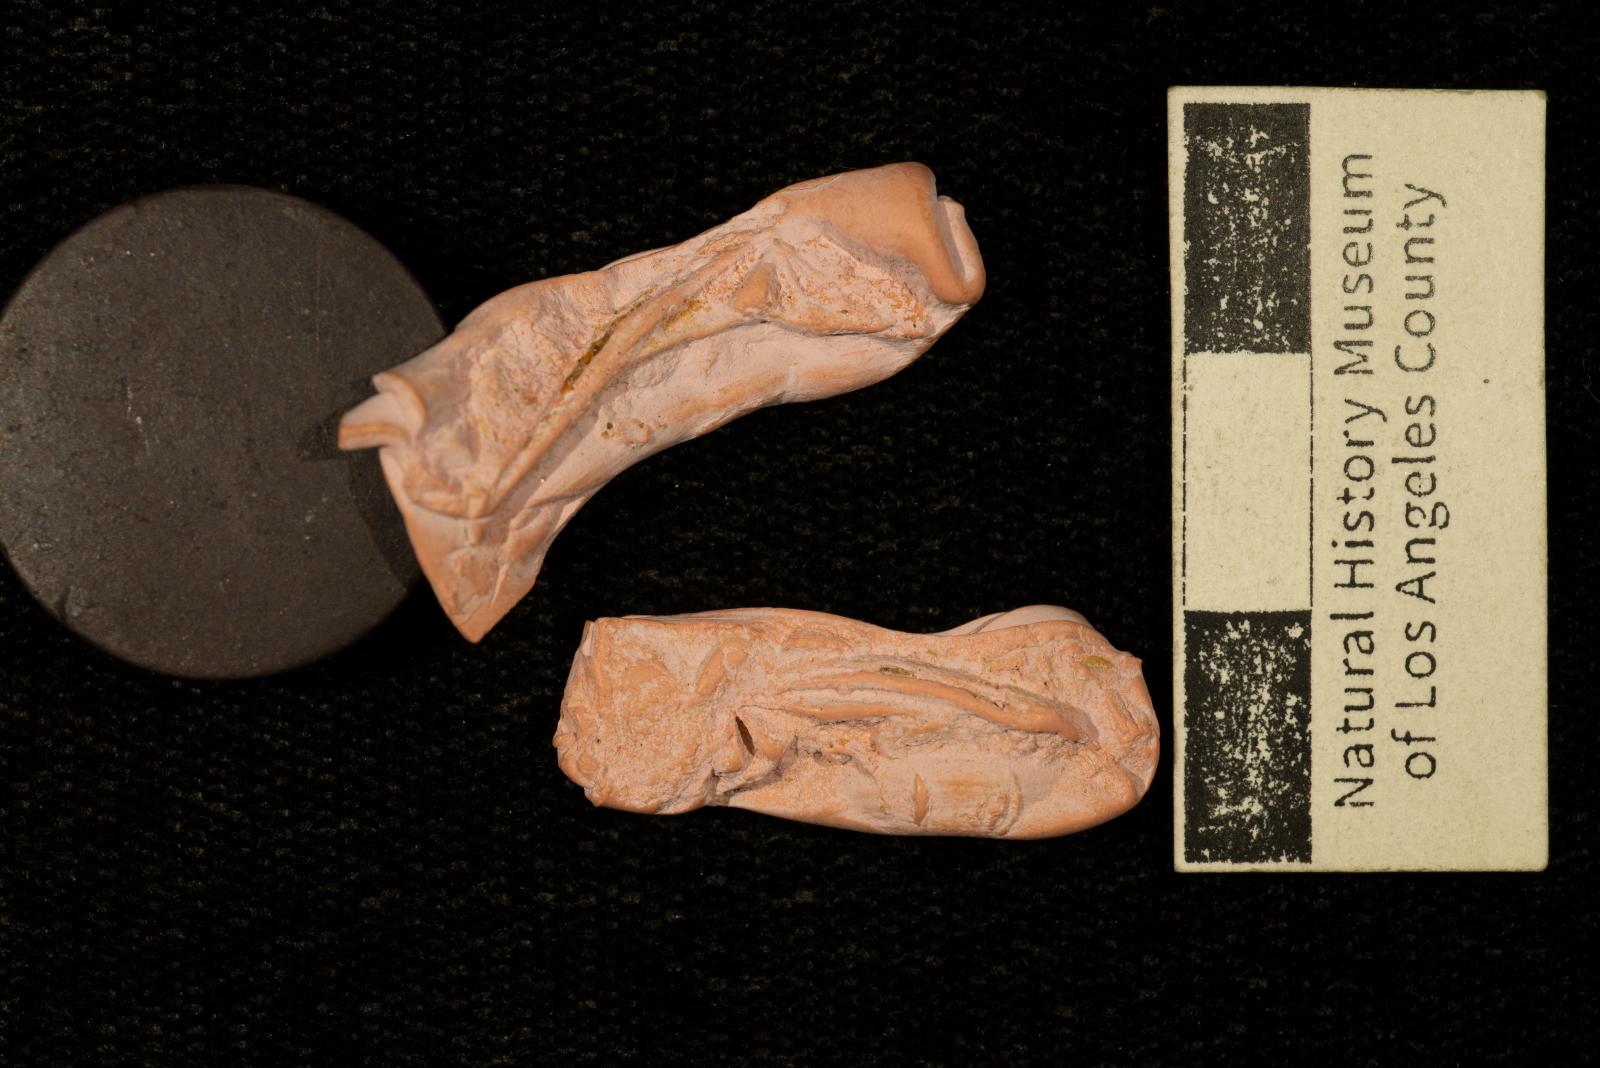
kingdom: Animalia
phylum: Mollusca
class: Bivalvia
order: Venerida
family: Veneridae
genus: Callistalox
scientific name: Callistalox Meretrix fragilis
